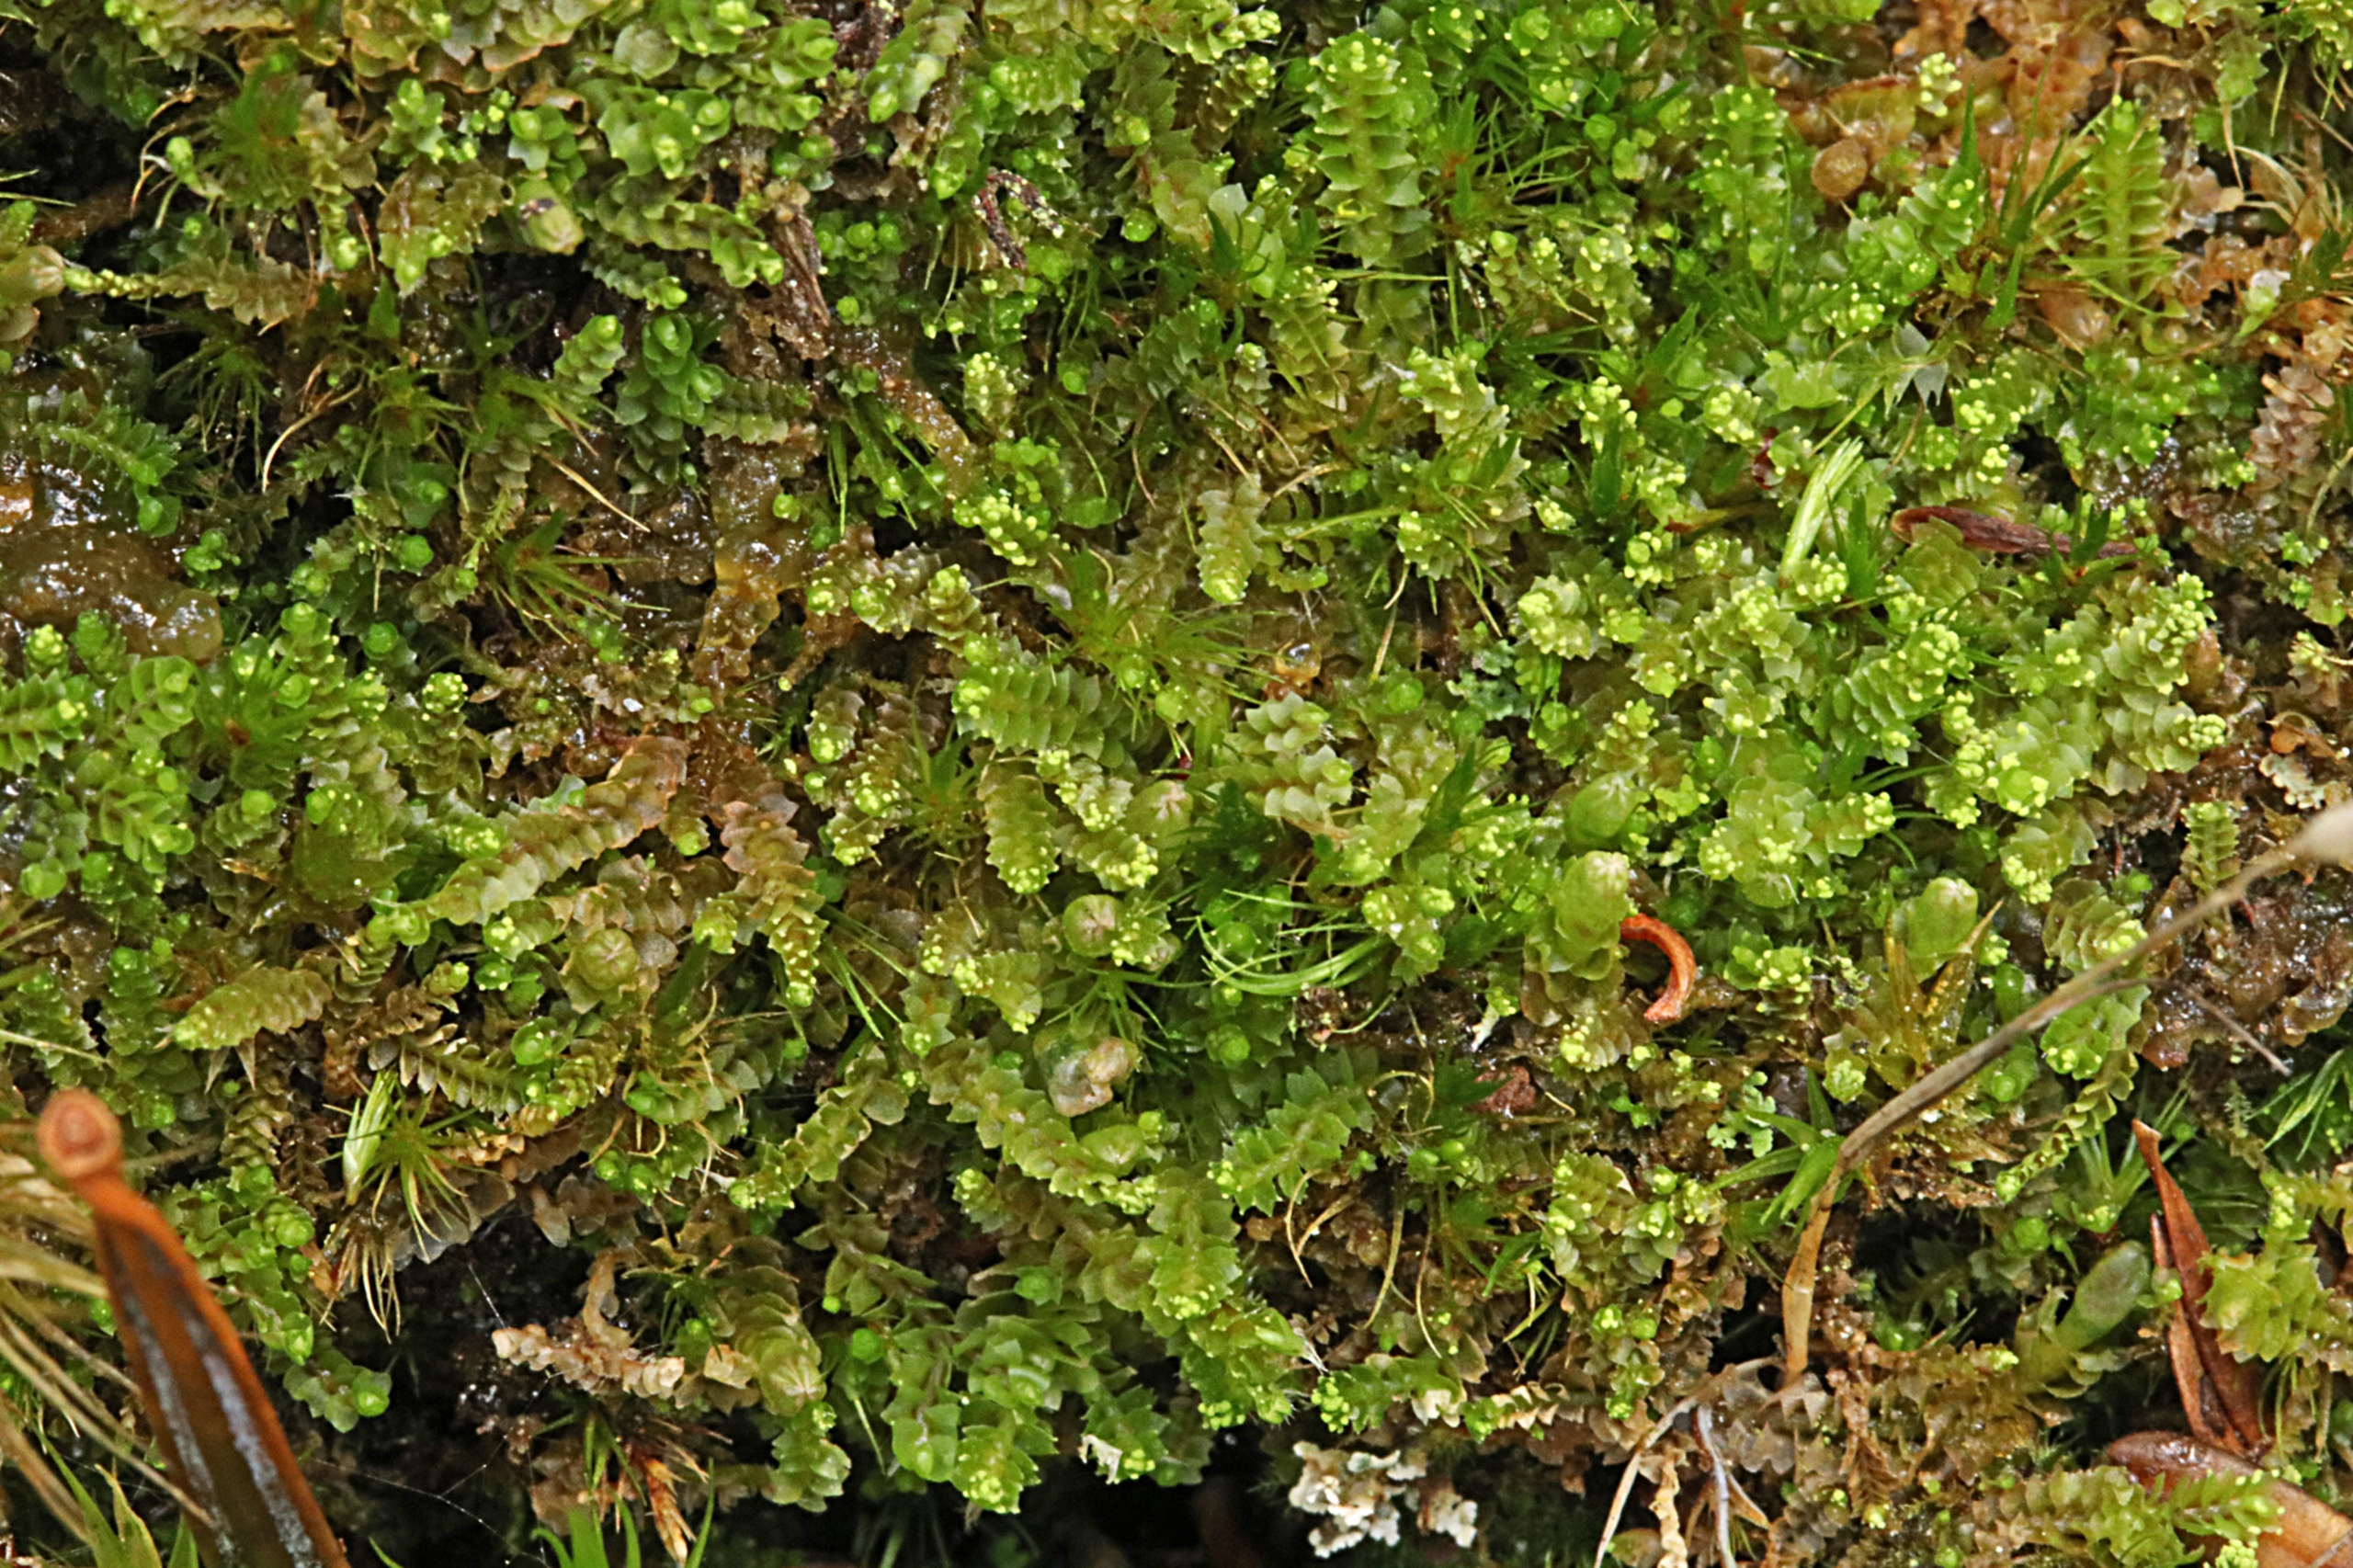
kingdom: Plantae
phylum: Marchantiophyta
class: Jungermanniopsida
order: Jungermanniales
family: Lophoziaceae
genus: Lophozia
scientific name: Lophozia ventricosa
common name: Grønkornet foldbæger
